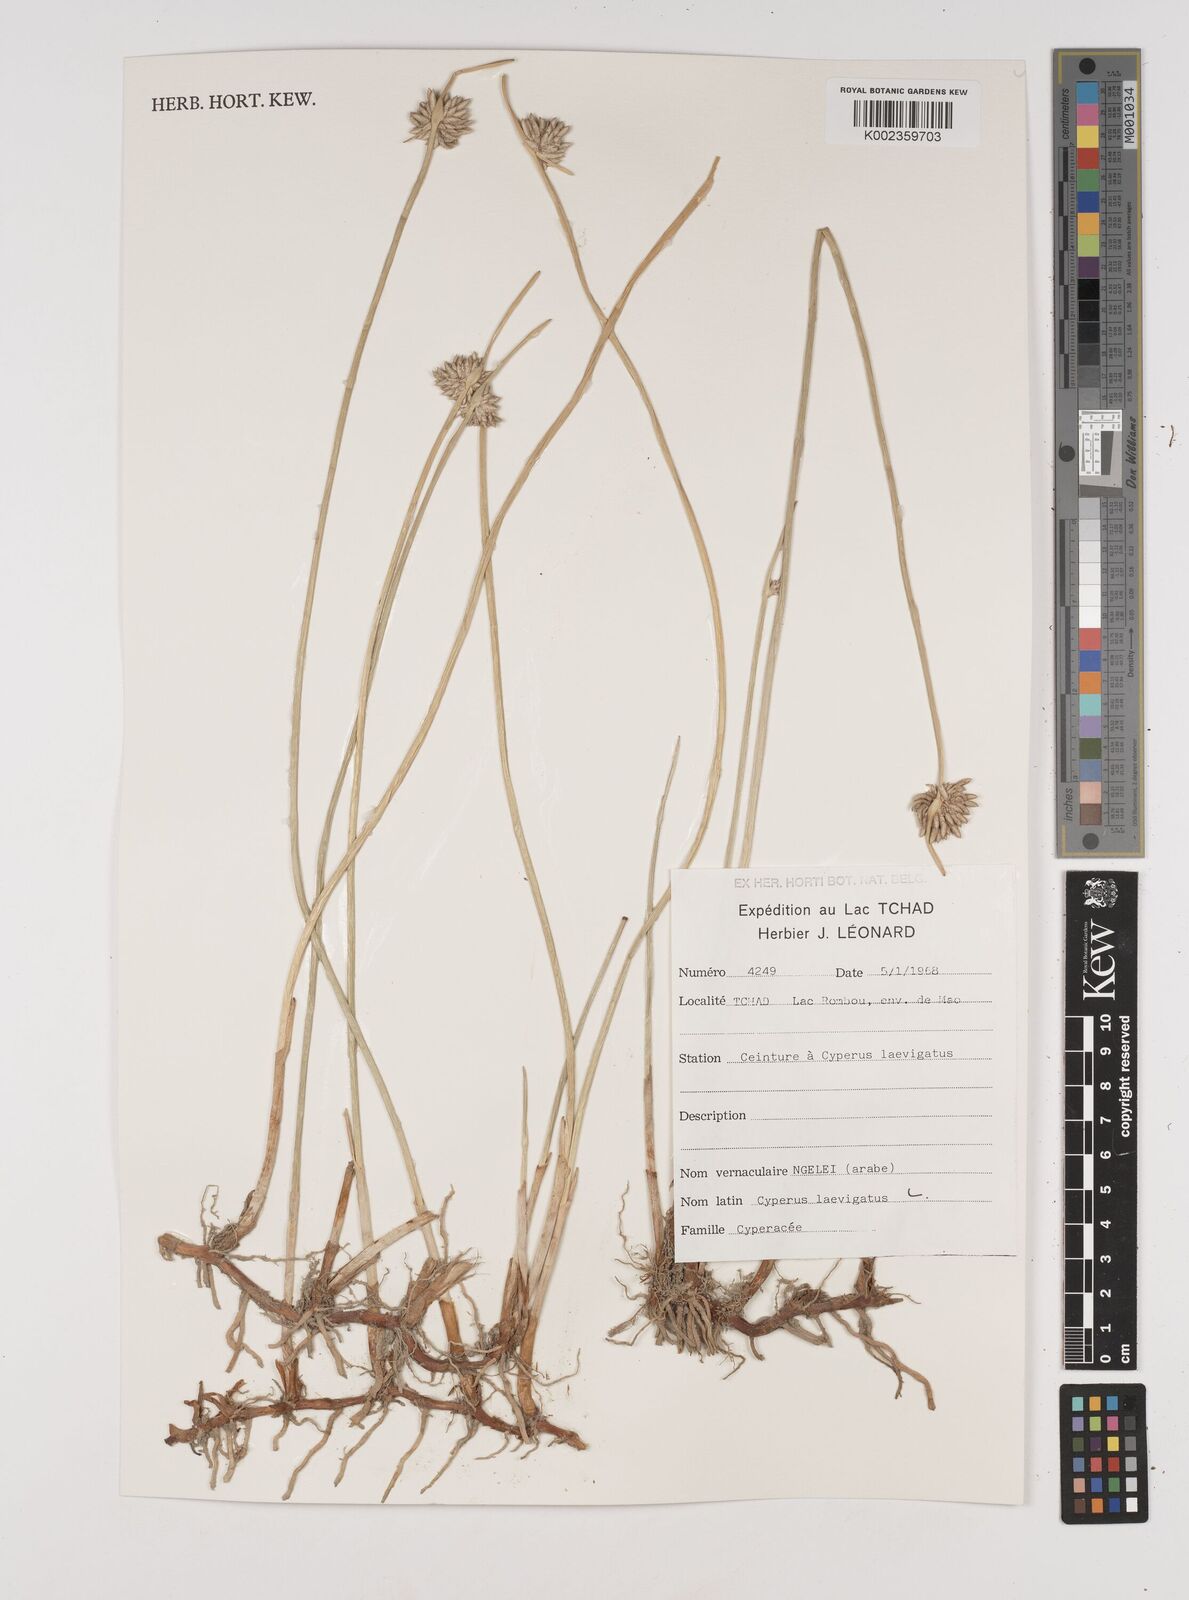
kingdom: Plantae
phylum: Tracheophyta
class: Liliopsida
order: Poales
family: Cyperaceae
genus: Cyperus
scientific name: Cyperus laevigatus
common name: Smooth flat sedge
